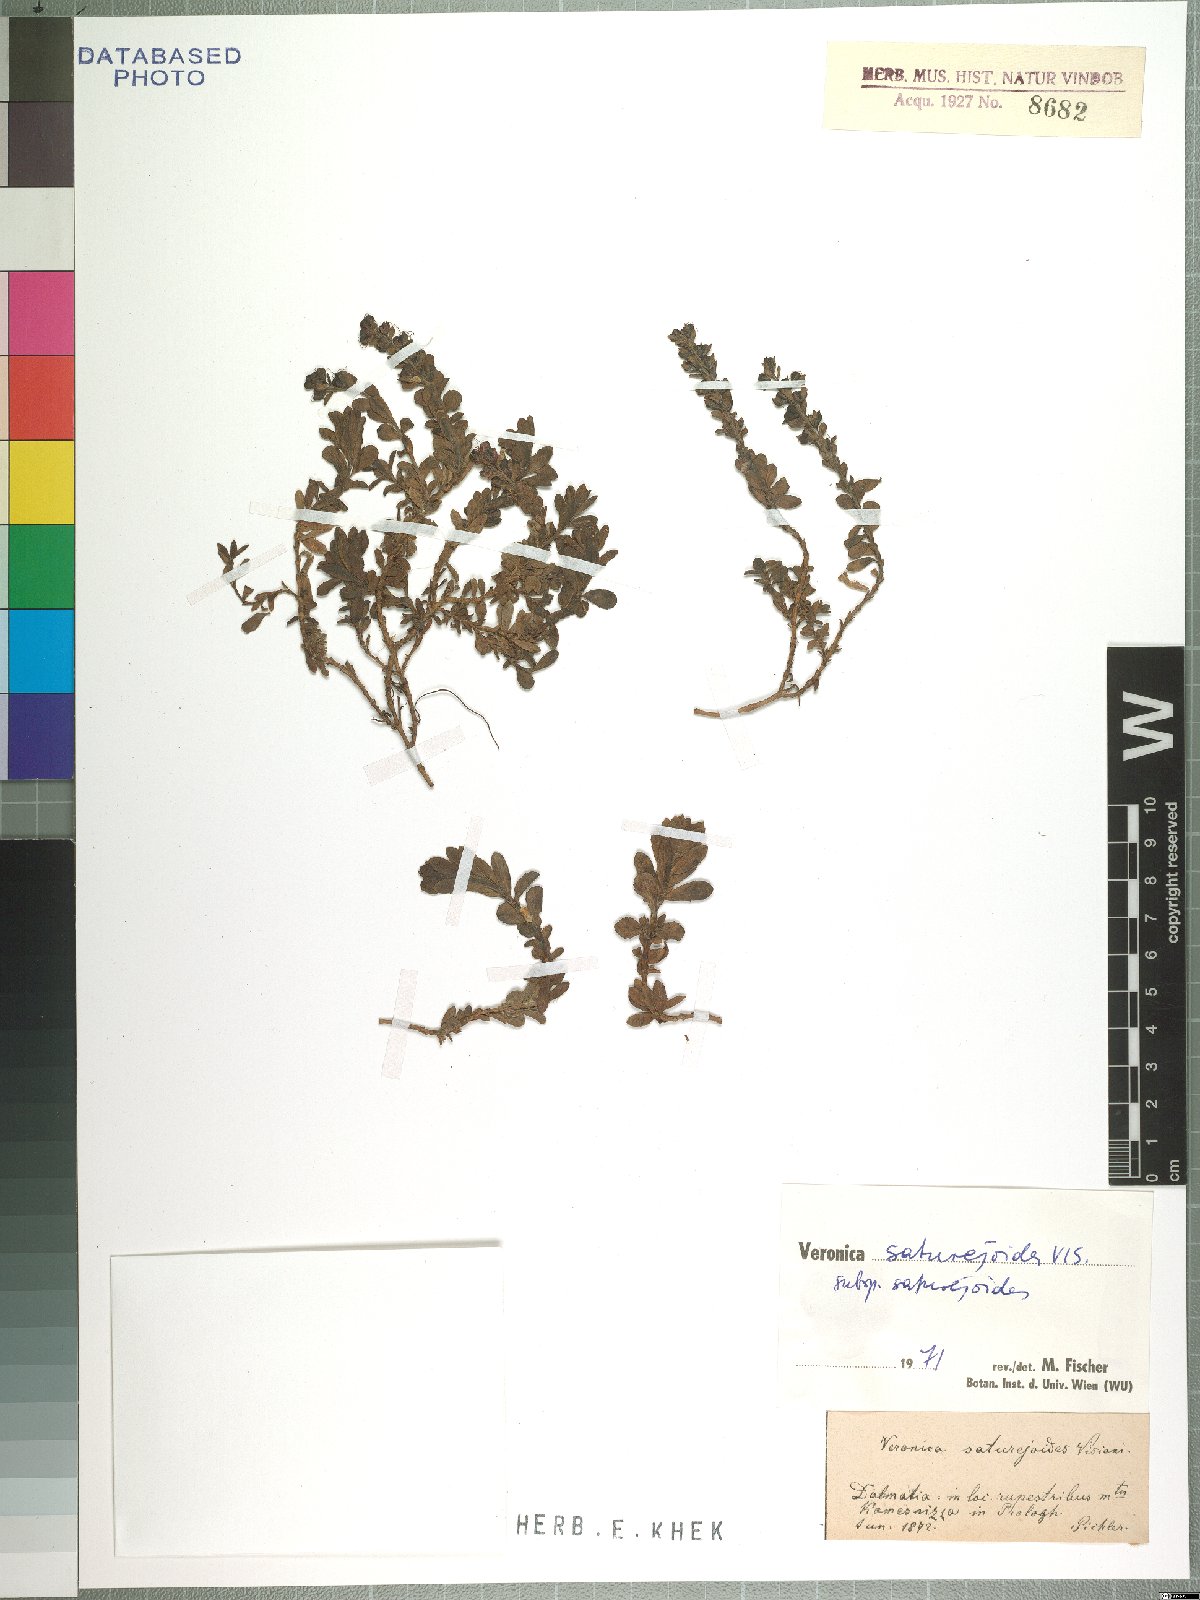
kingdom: Plantae
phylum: Tracheophyta
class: Magnoliopsida
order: Lamiales
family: Plantaginaceae
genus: Veronica
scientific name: Veronica saturejoides
